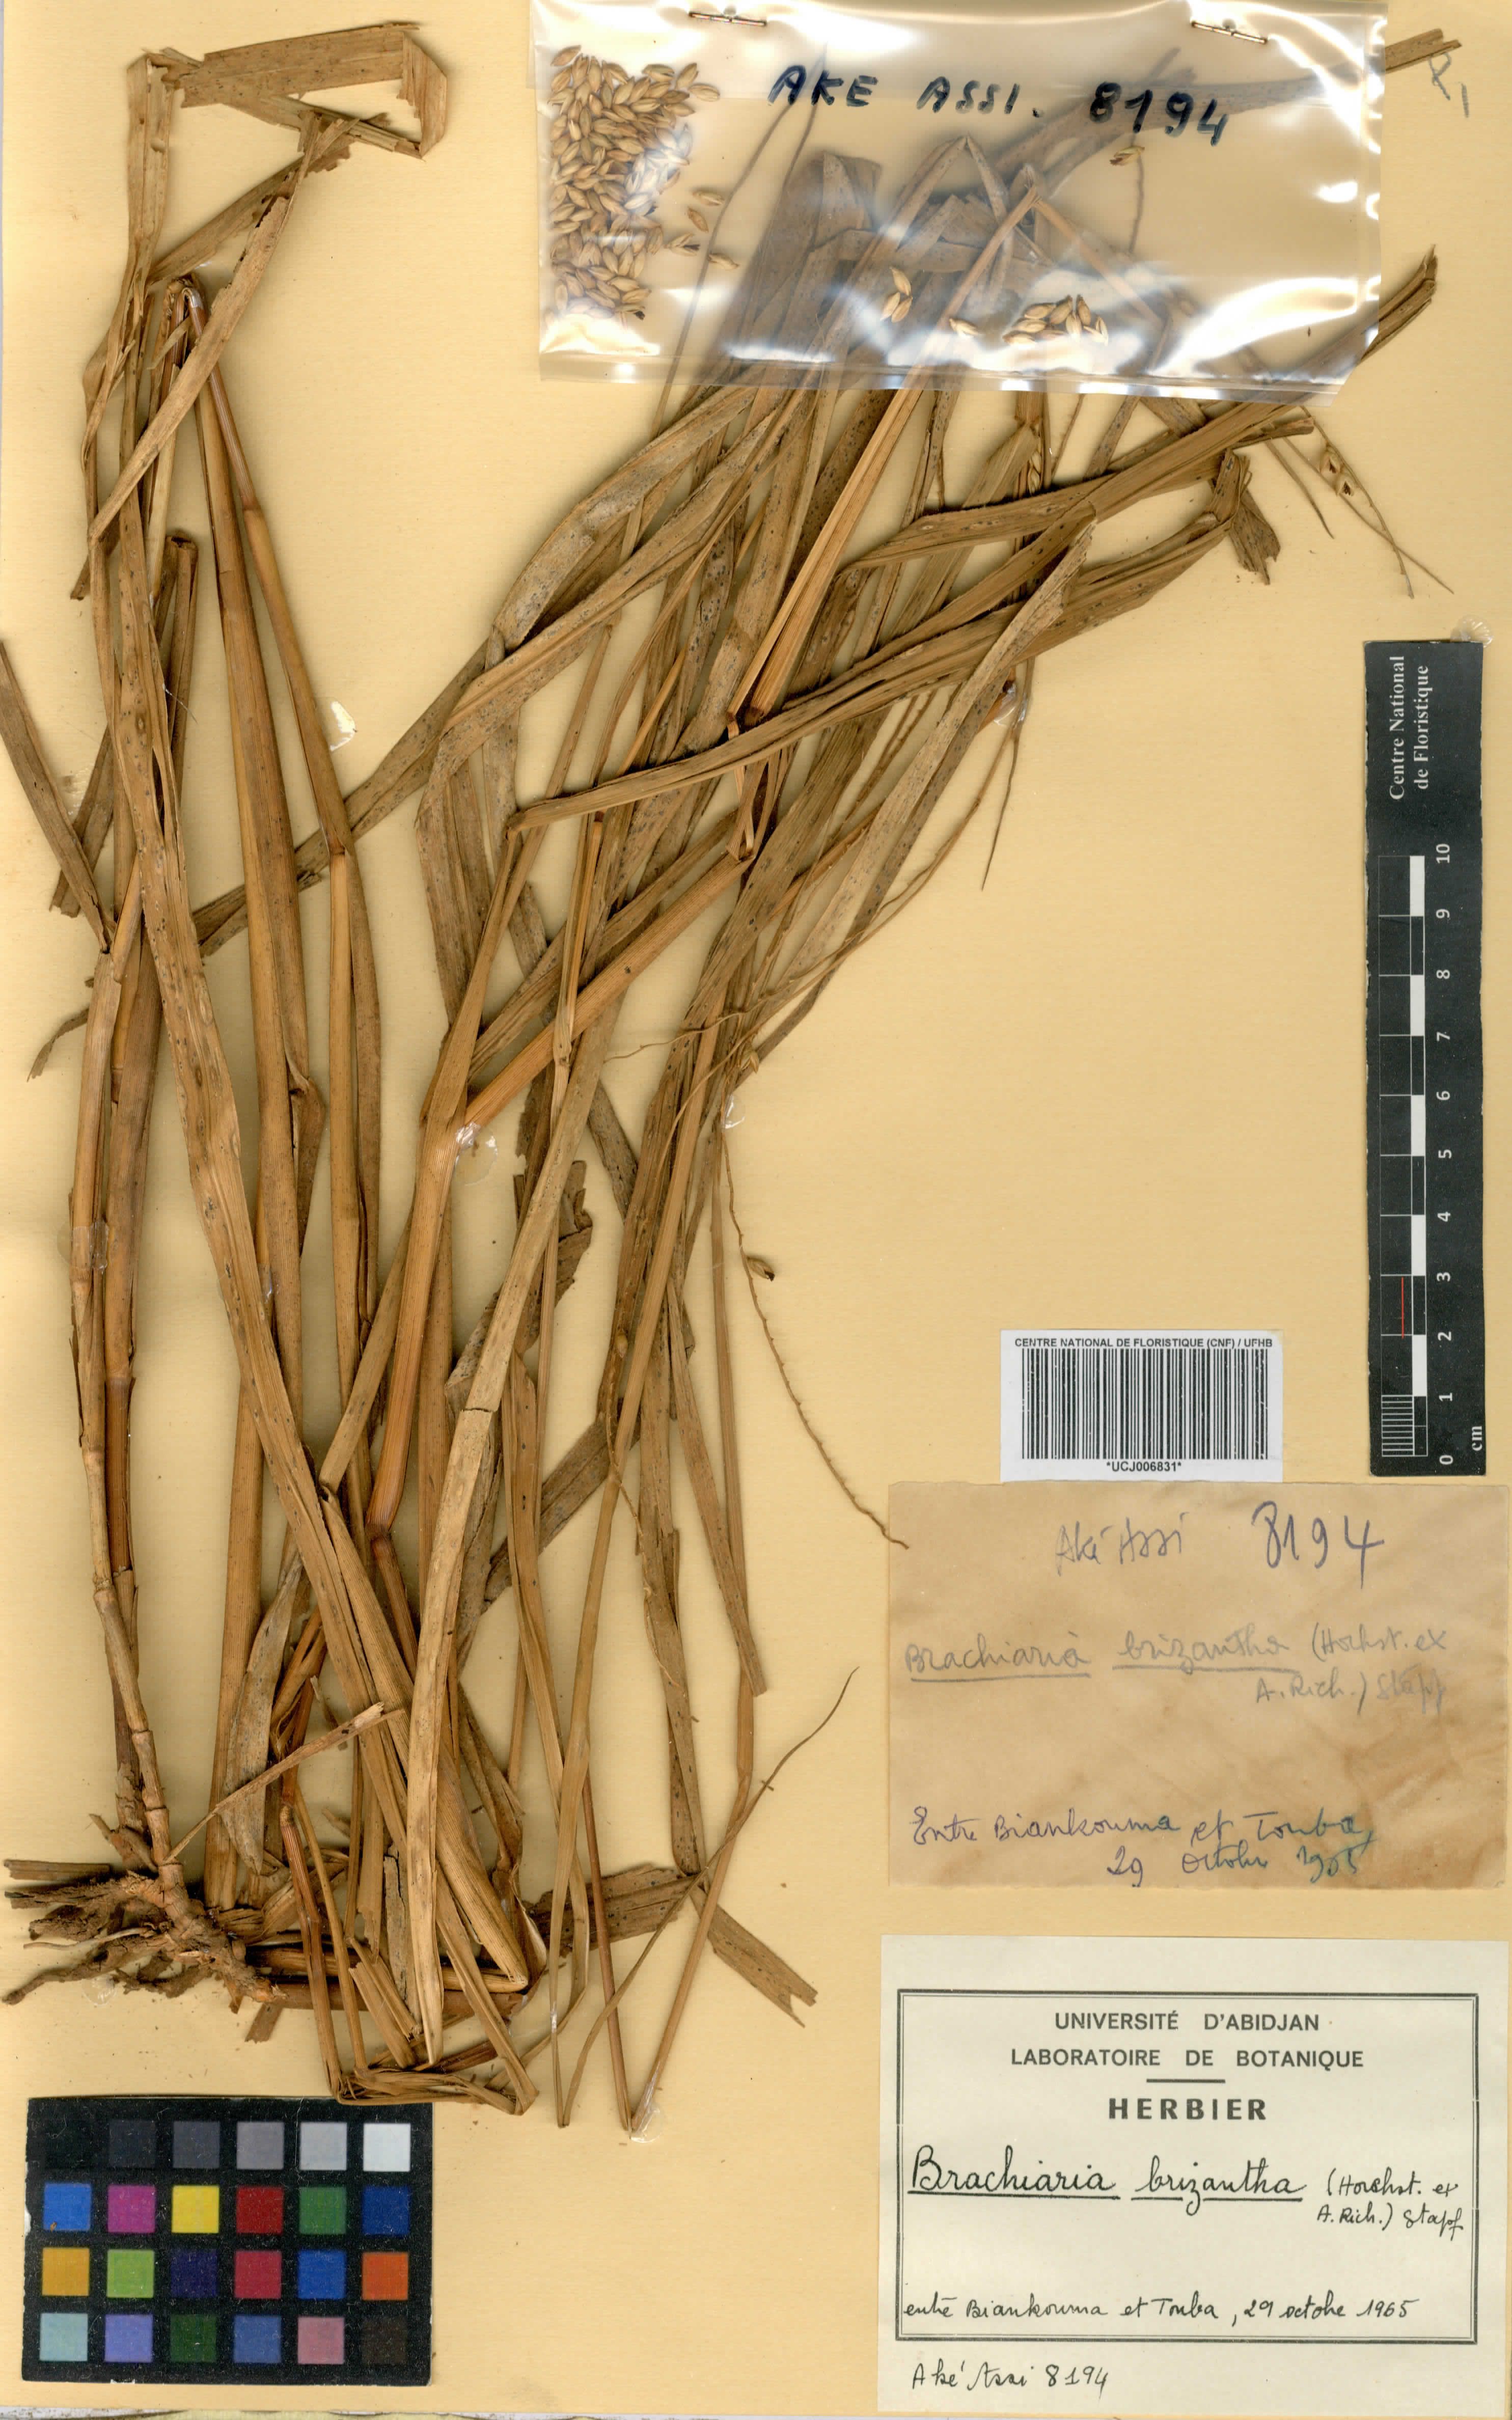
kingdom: Plantae
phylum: Tracheophyta
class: Liliopsida
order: Poales
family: Poaceae
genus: Urochloa
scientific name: Urochloa brizantha
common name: Palisade signalgrass
